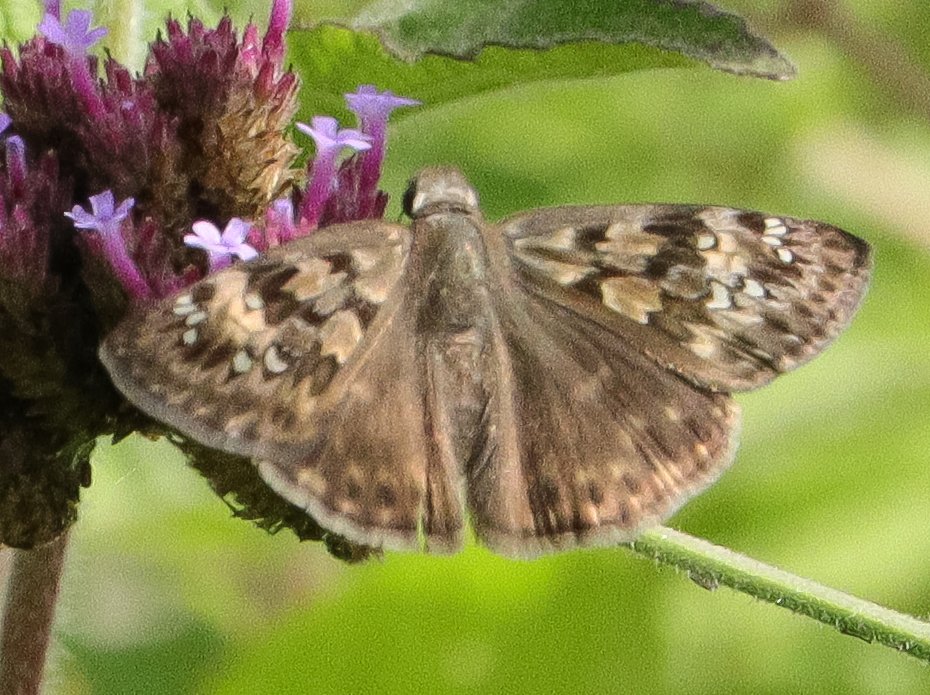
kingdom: Animalia
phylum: Arthropoda
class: Insecta
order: Lepidoptera
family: Hesperiidae
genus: Gesta
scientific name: Gesta
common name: Horace's Duskywing
